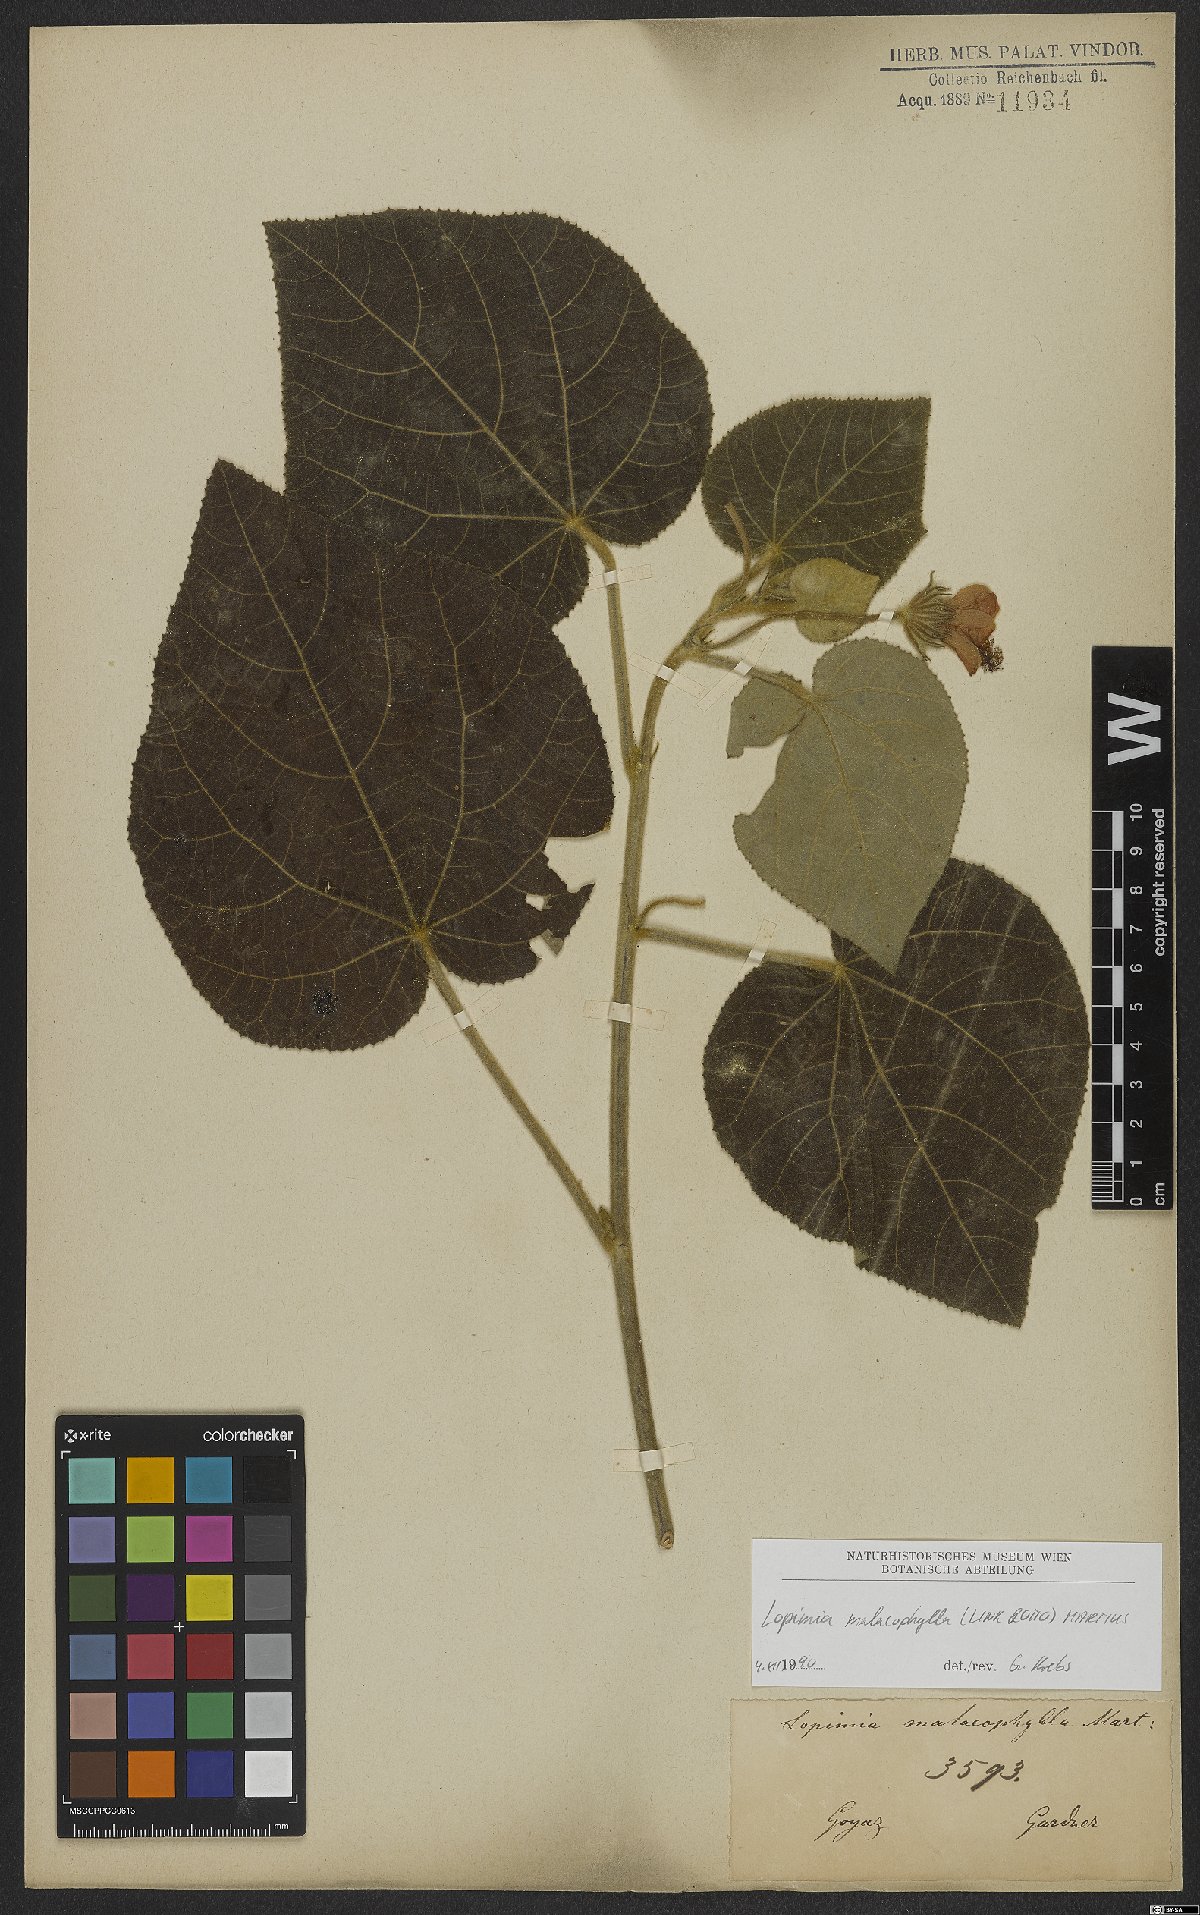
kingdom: Plantae
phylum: Tracheophyta
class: Magnoliopsida
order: Malvales
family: Malvaceae
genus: Pavonia
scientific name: Pavonia malacophylla
